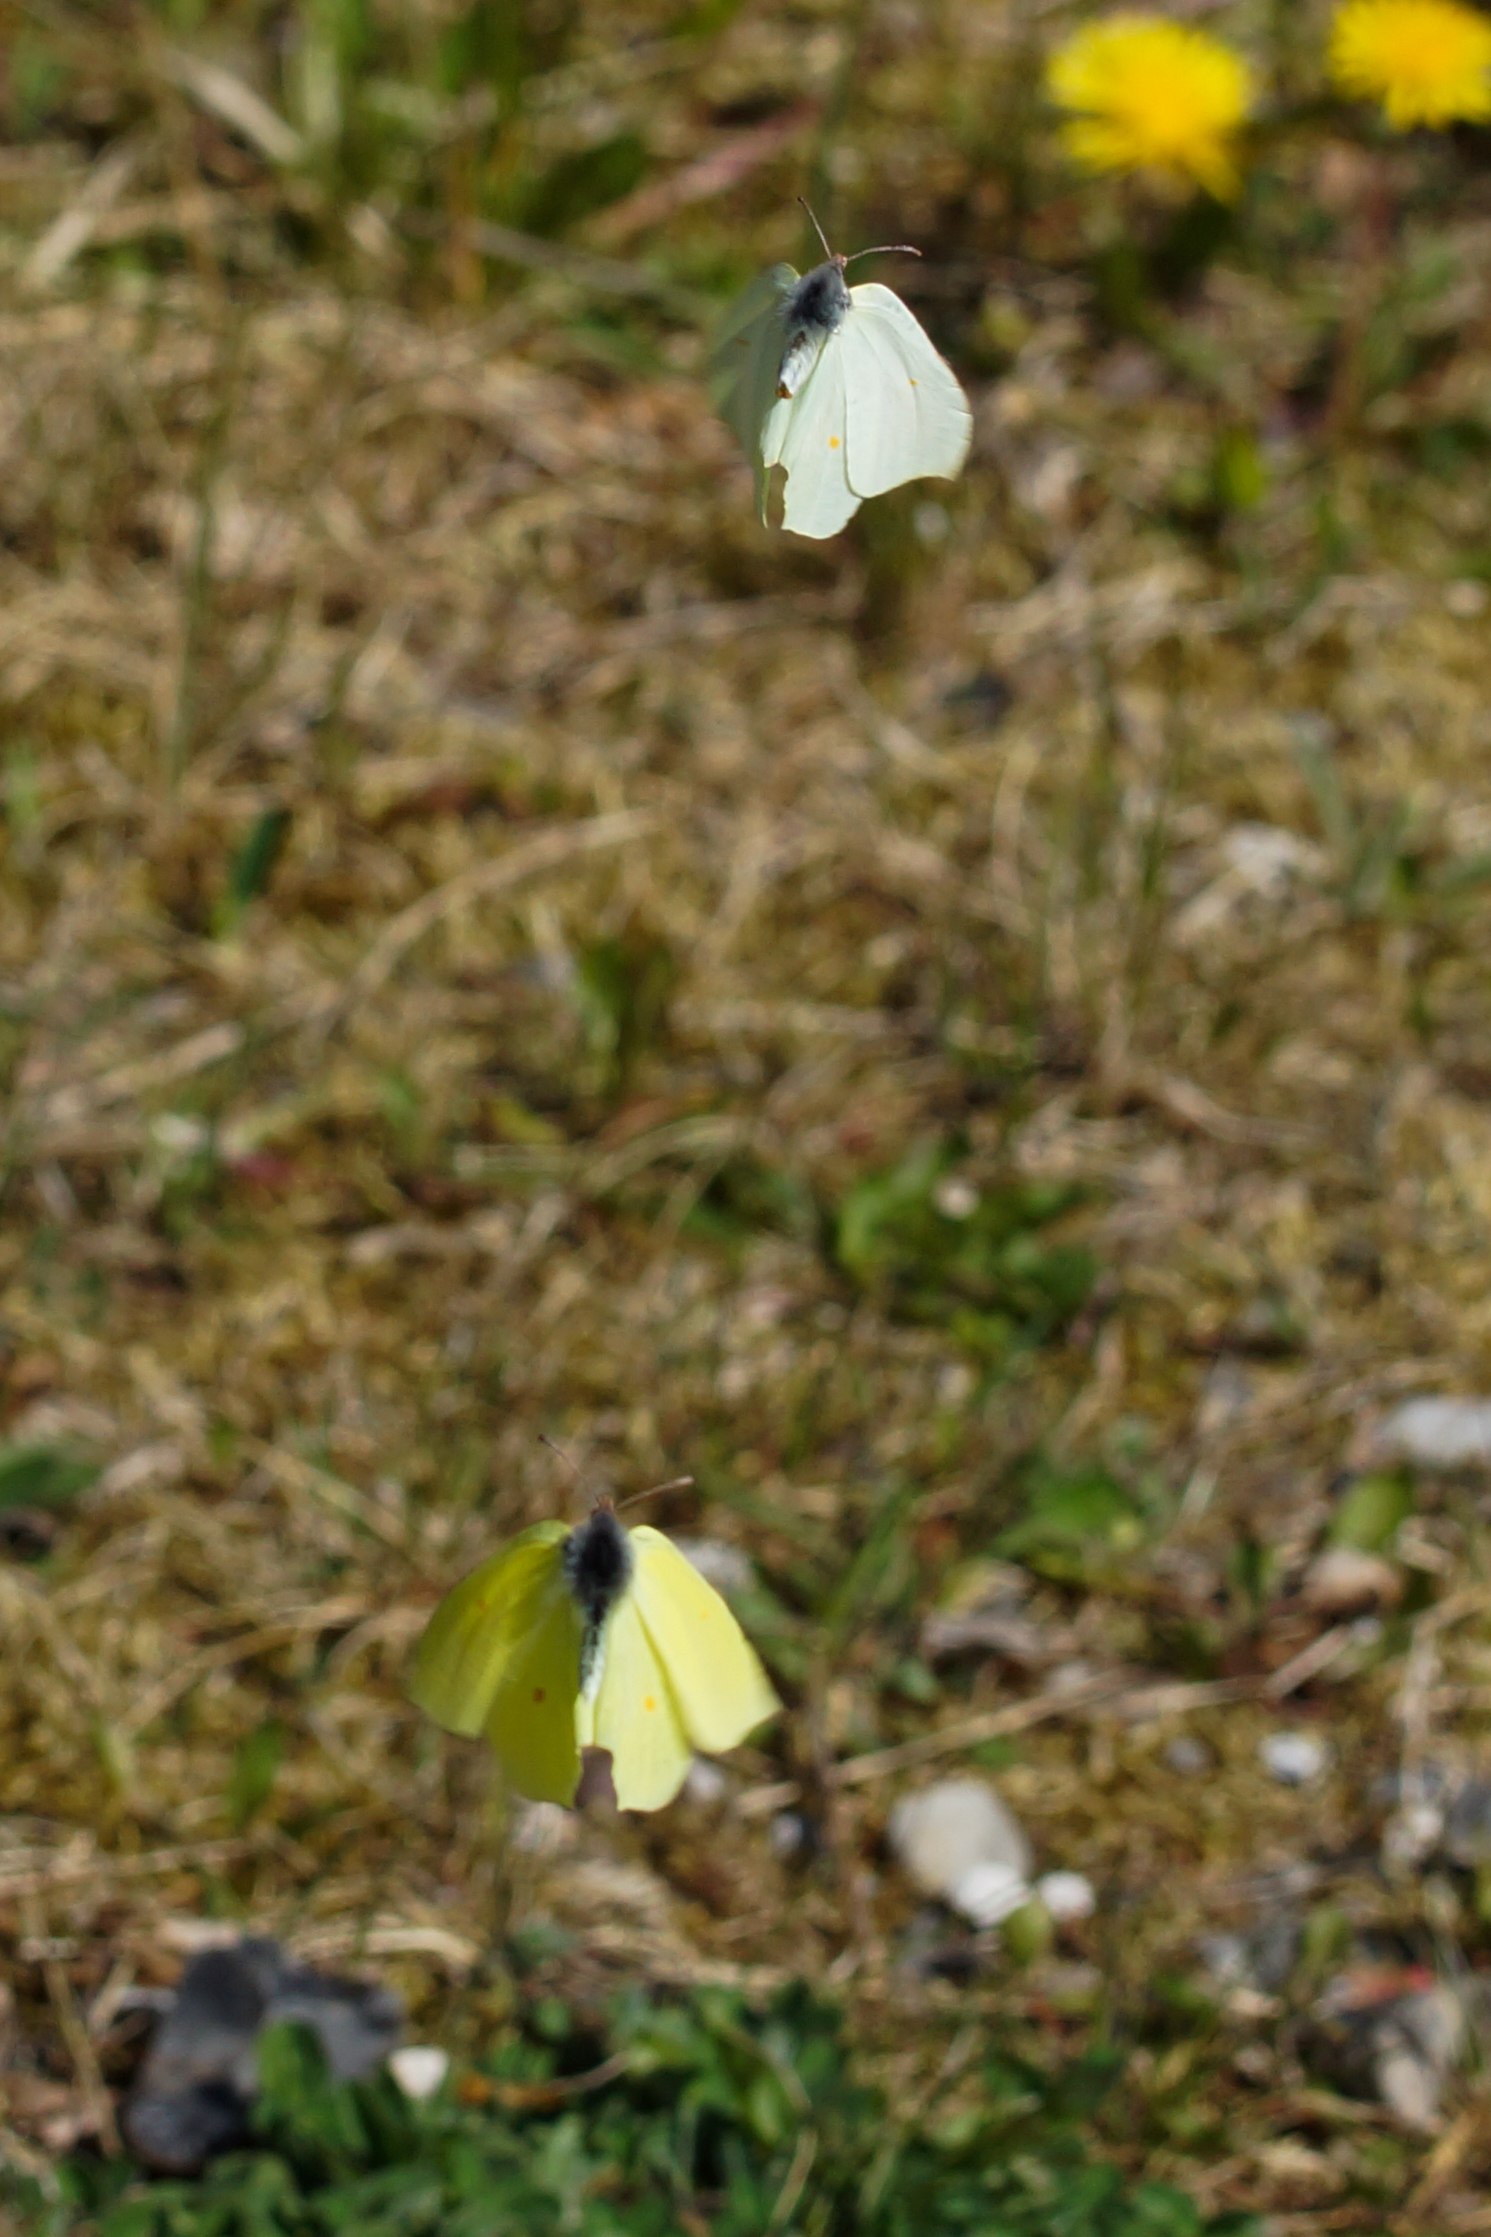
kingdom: Animalia
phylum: Arthropoda
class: Insecta
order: Lepidoptera
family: Pieridae
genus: Gonepteryx
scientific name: Gonepteryx rhamni
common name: Citronsommerfugl
